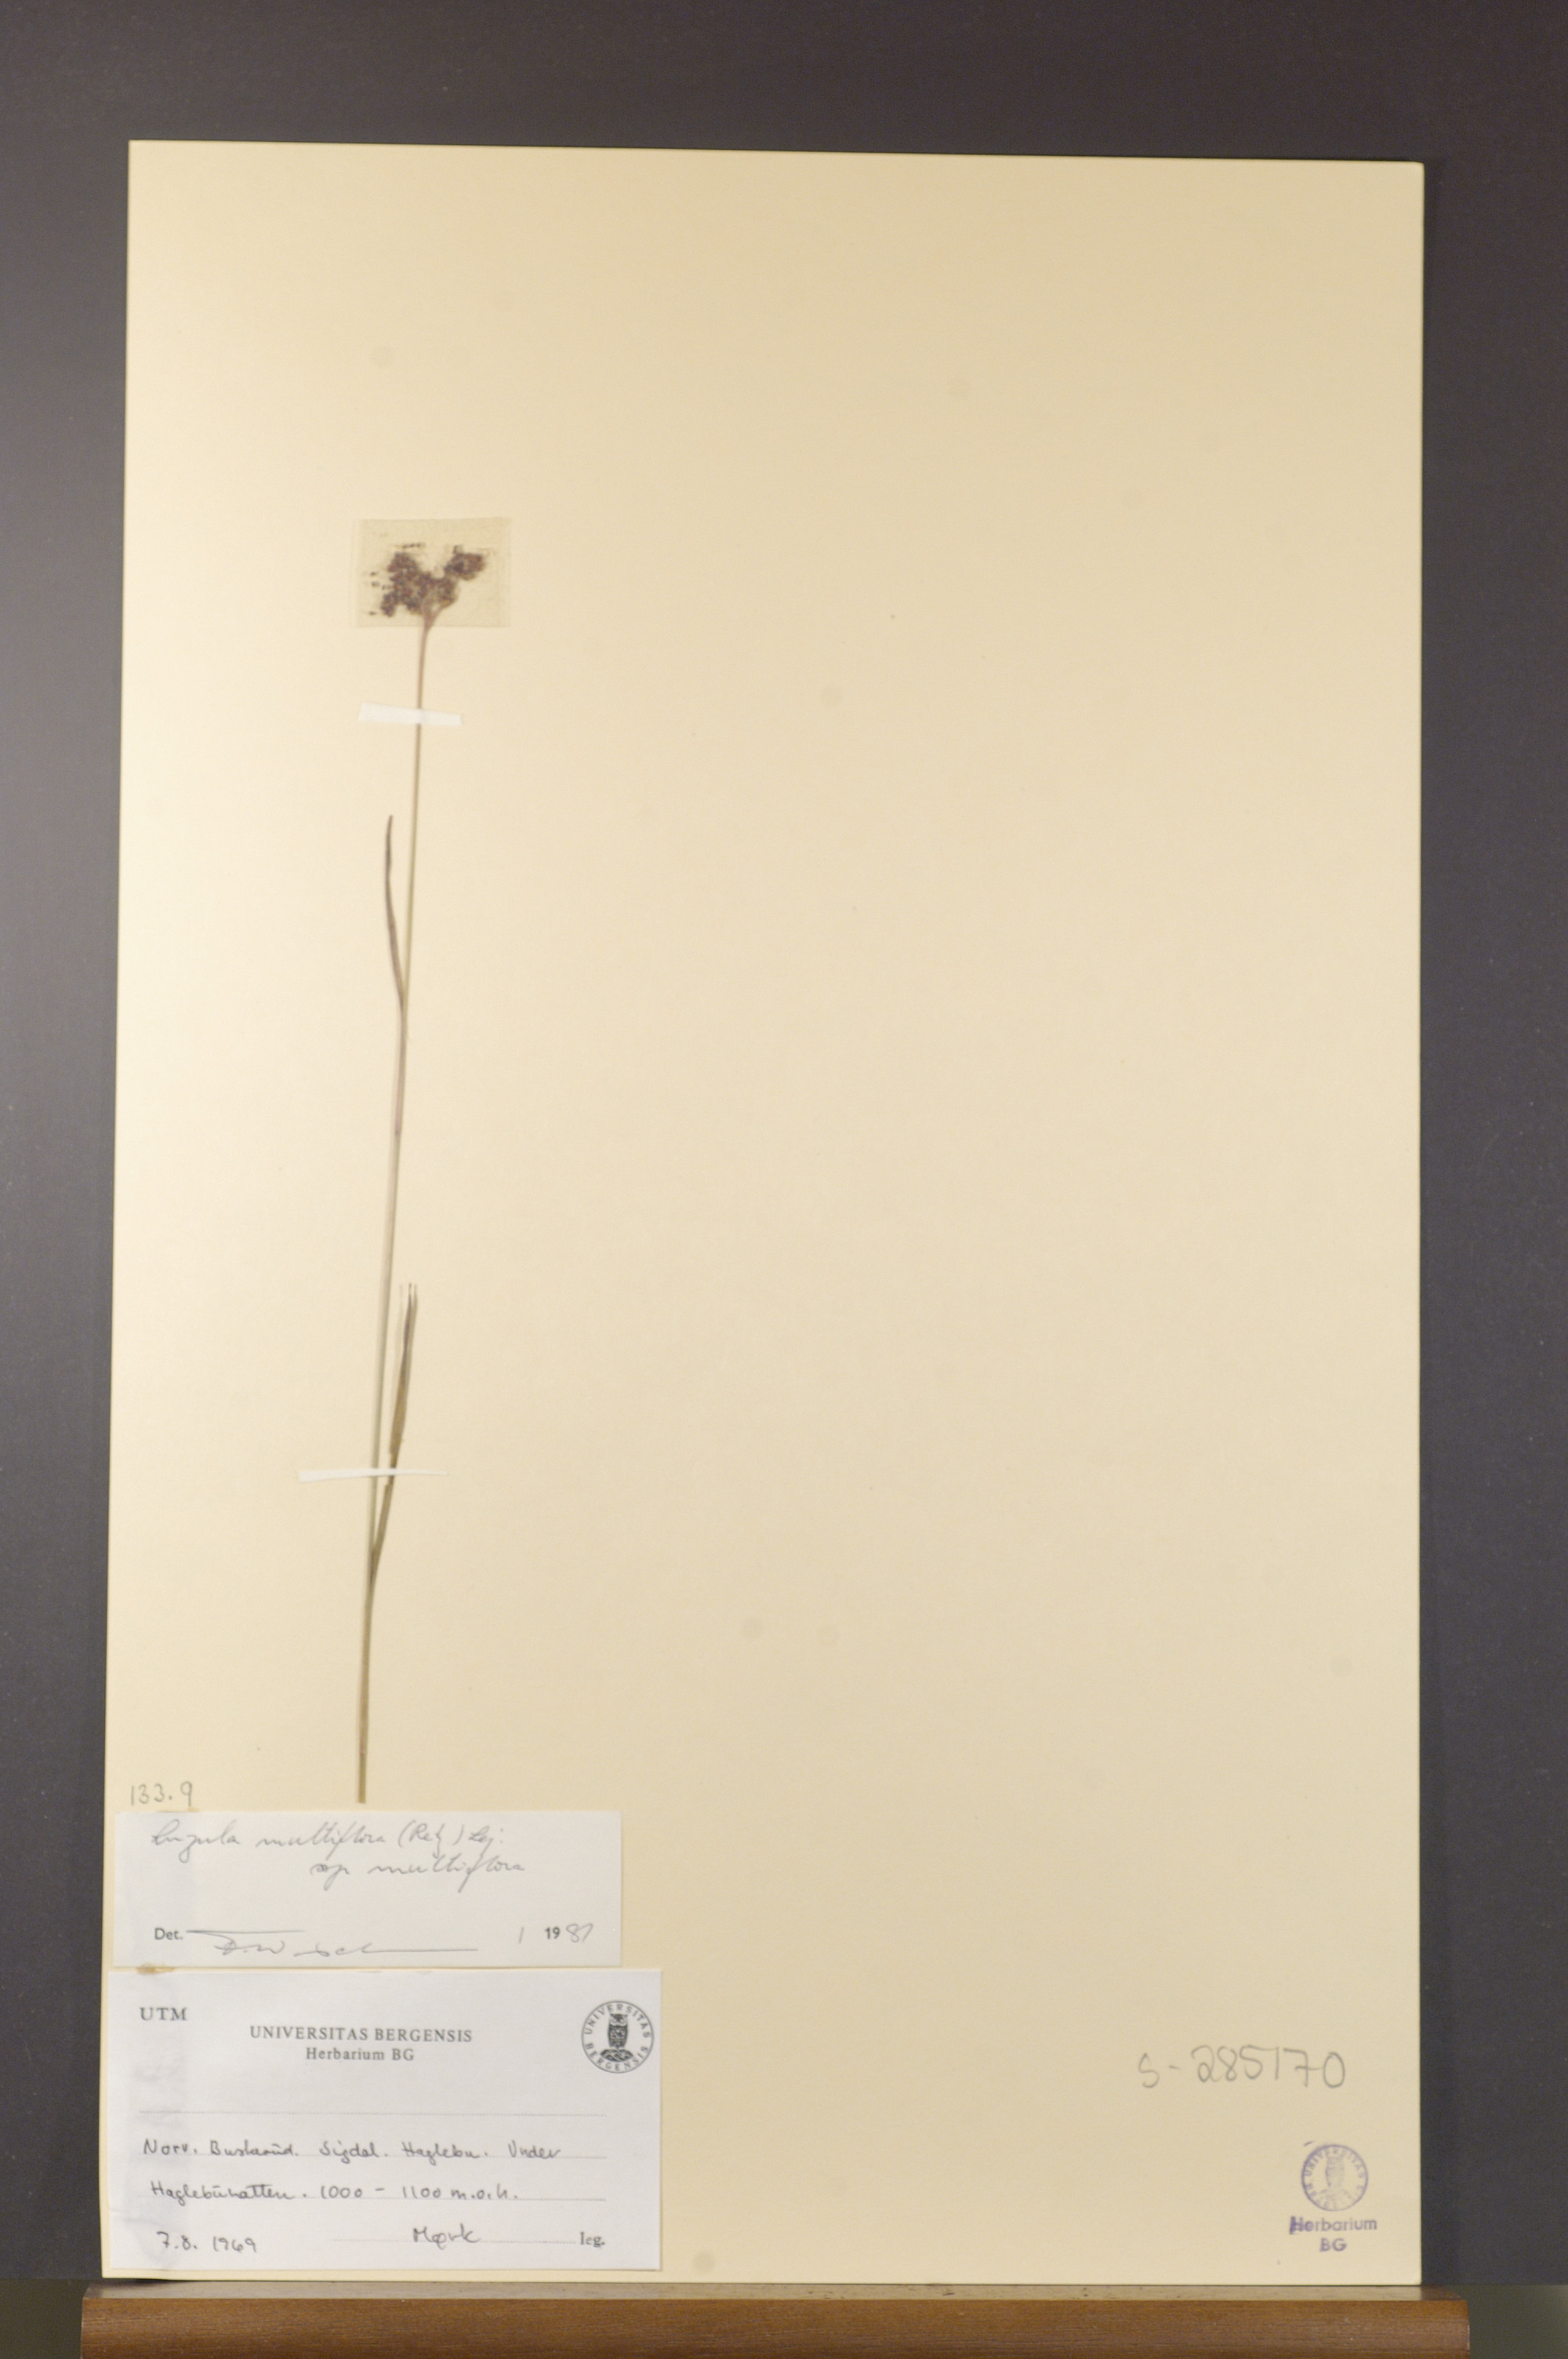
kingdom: Plantae
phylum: Tracheophyta
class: Liliopsida
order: Poales
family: Juncaceae
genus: Luzula
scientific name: Luzula multiflora
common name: Heath wood-rush
